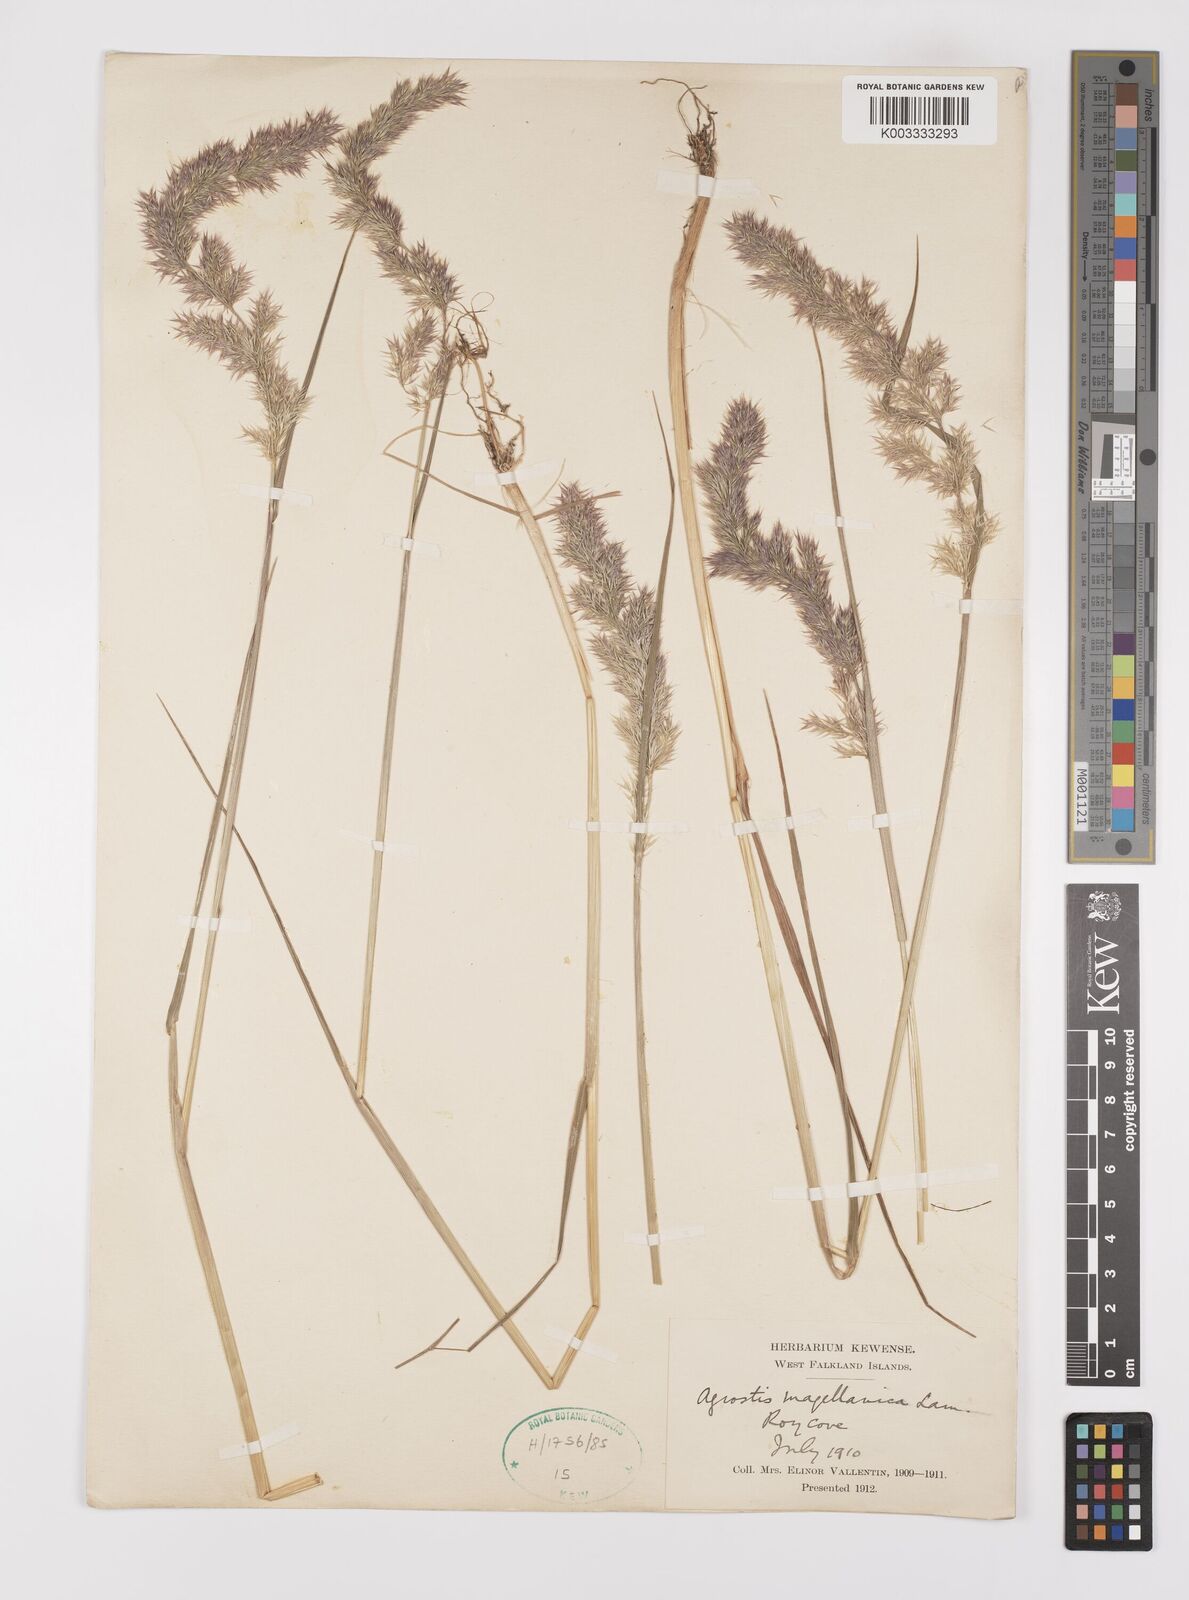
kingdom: Plantae
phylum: Tracheophyta
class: Liliopsida
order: Poales
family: Poaceae
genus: Polypogon
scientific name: Polypogon magellanicus
